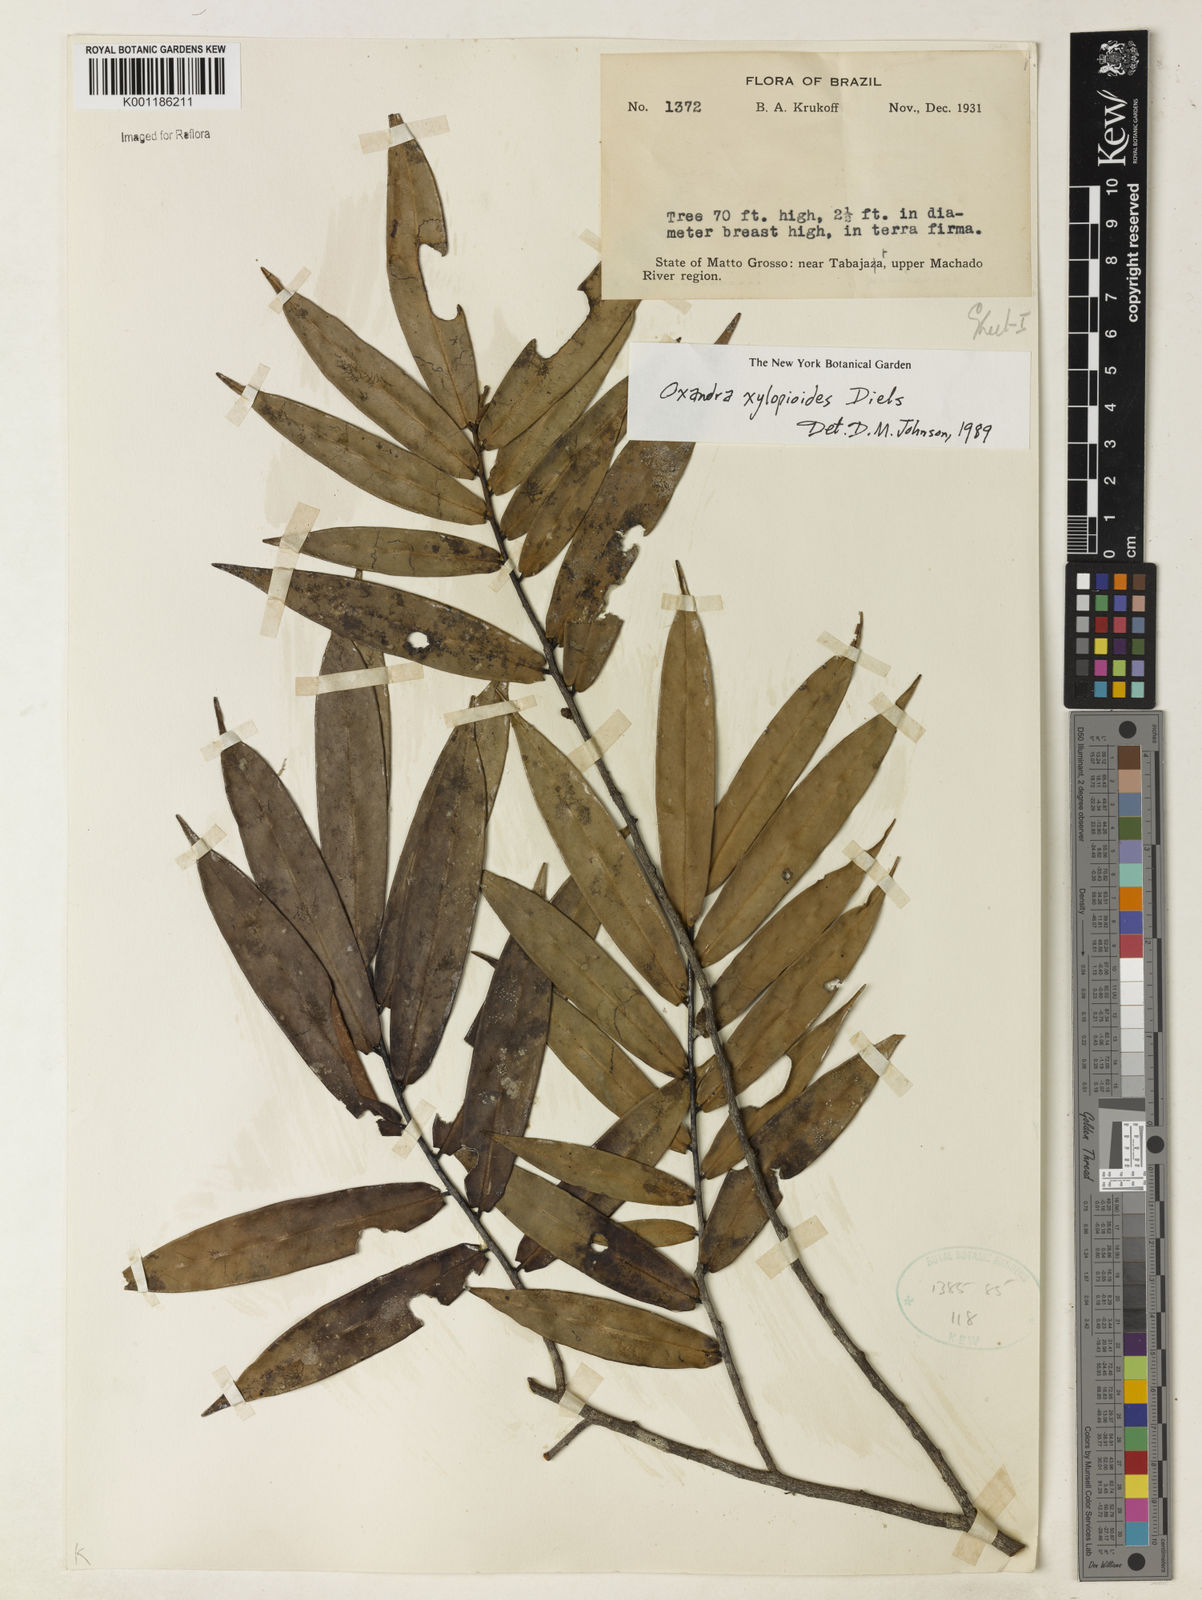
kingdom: Plantae
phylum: Tracheophyta
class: Magnoliopsida
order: Magnoliales
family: Annonaceae
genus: Oxandra
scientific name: Oxandra xylopioides
